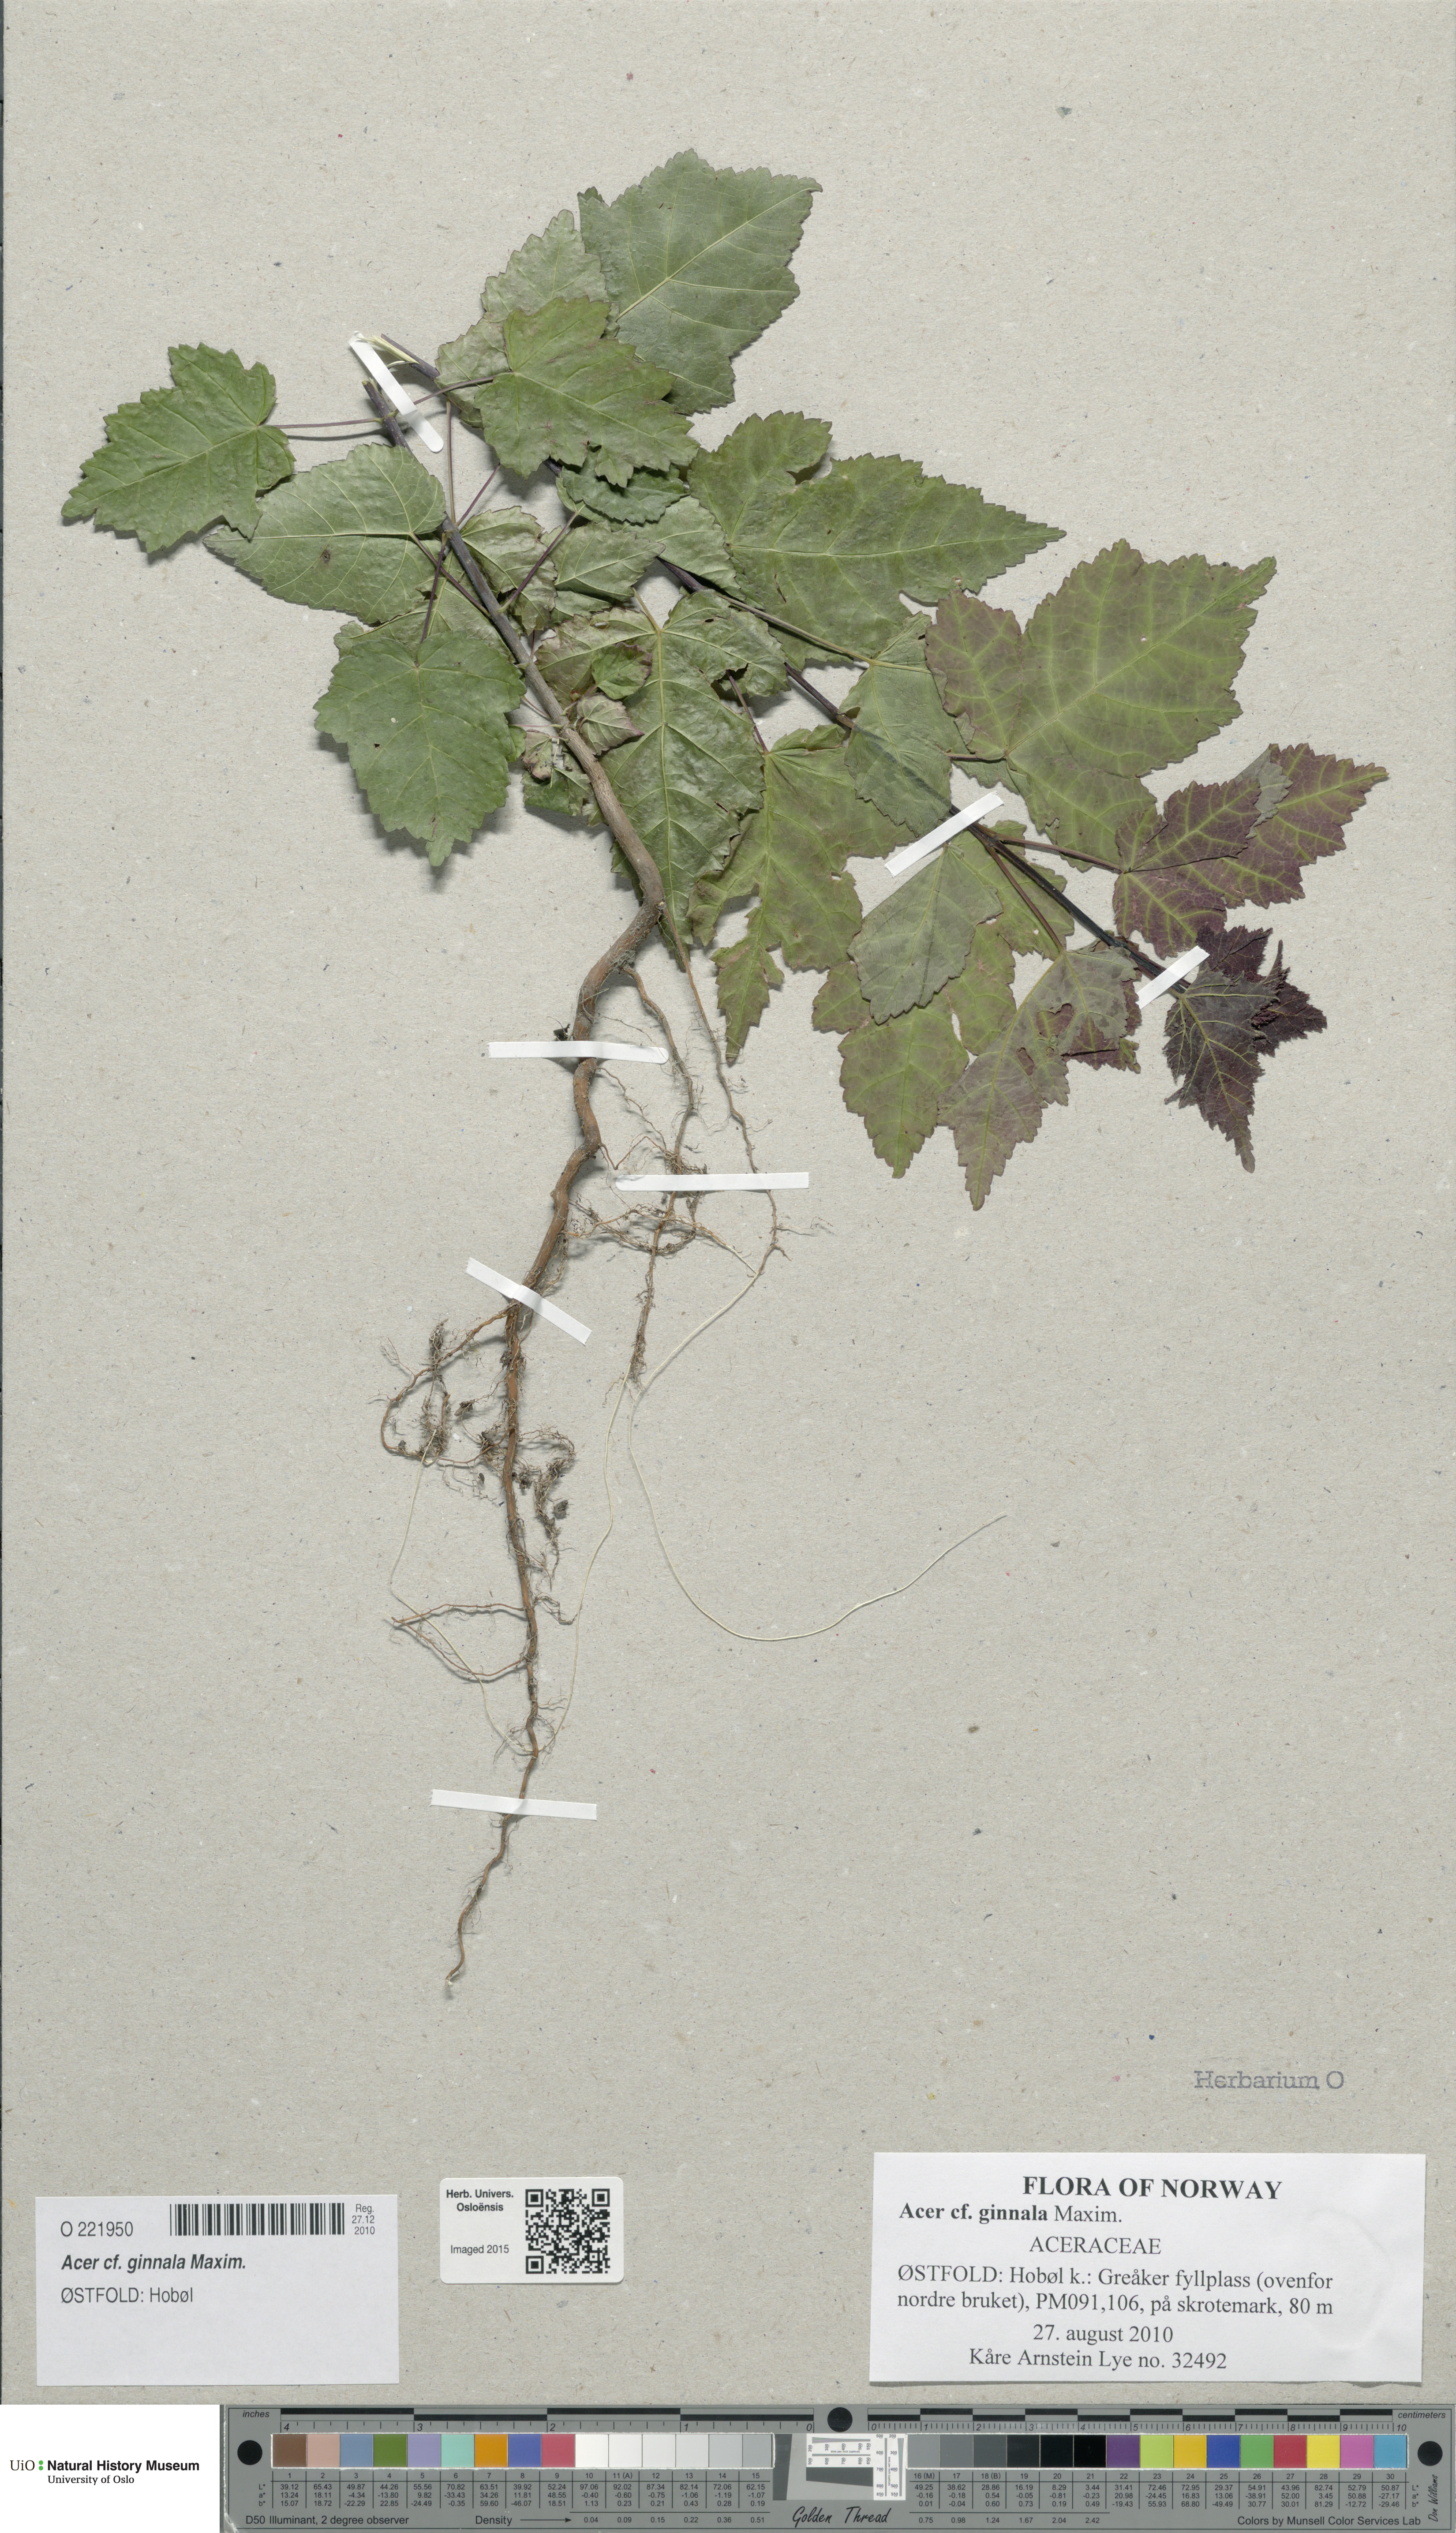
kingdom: Plantae
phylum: Tracheophyta
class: Magnoliopsida
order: Sapindales
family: Sapindaceae
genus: Acer
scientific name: Acer tataricum
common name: Tartar maple
